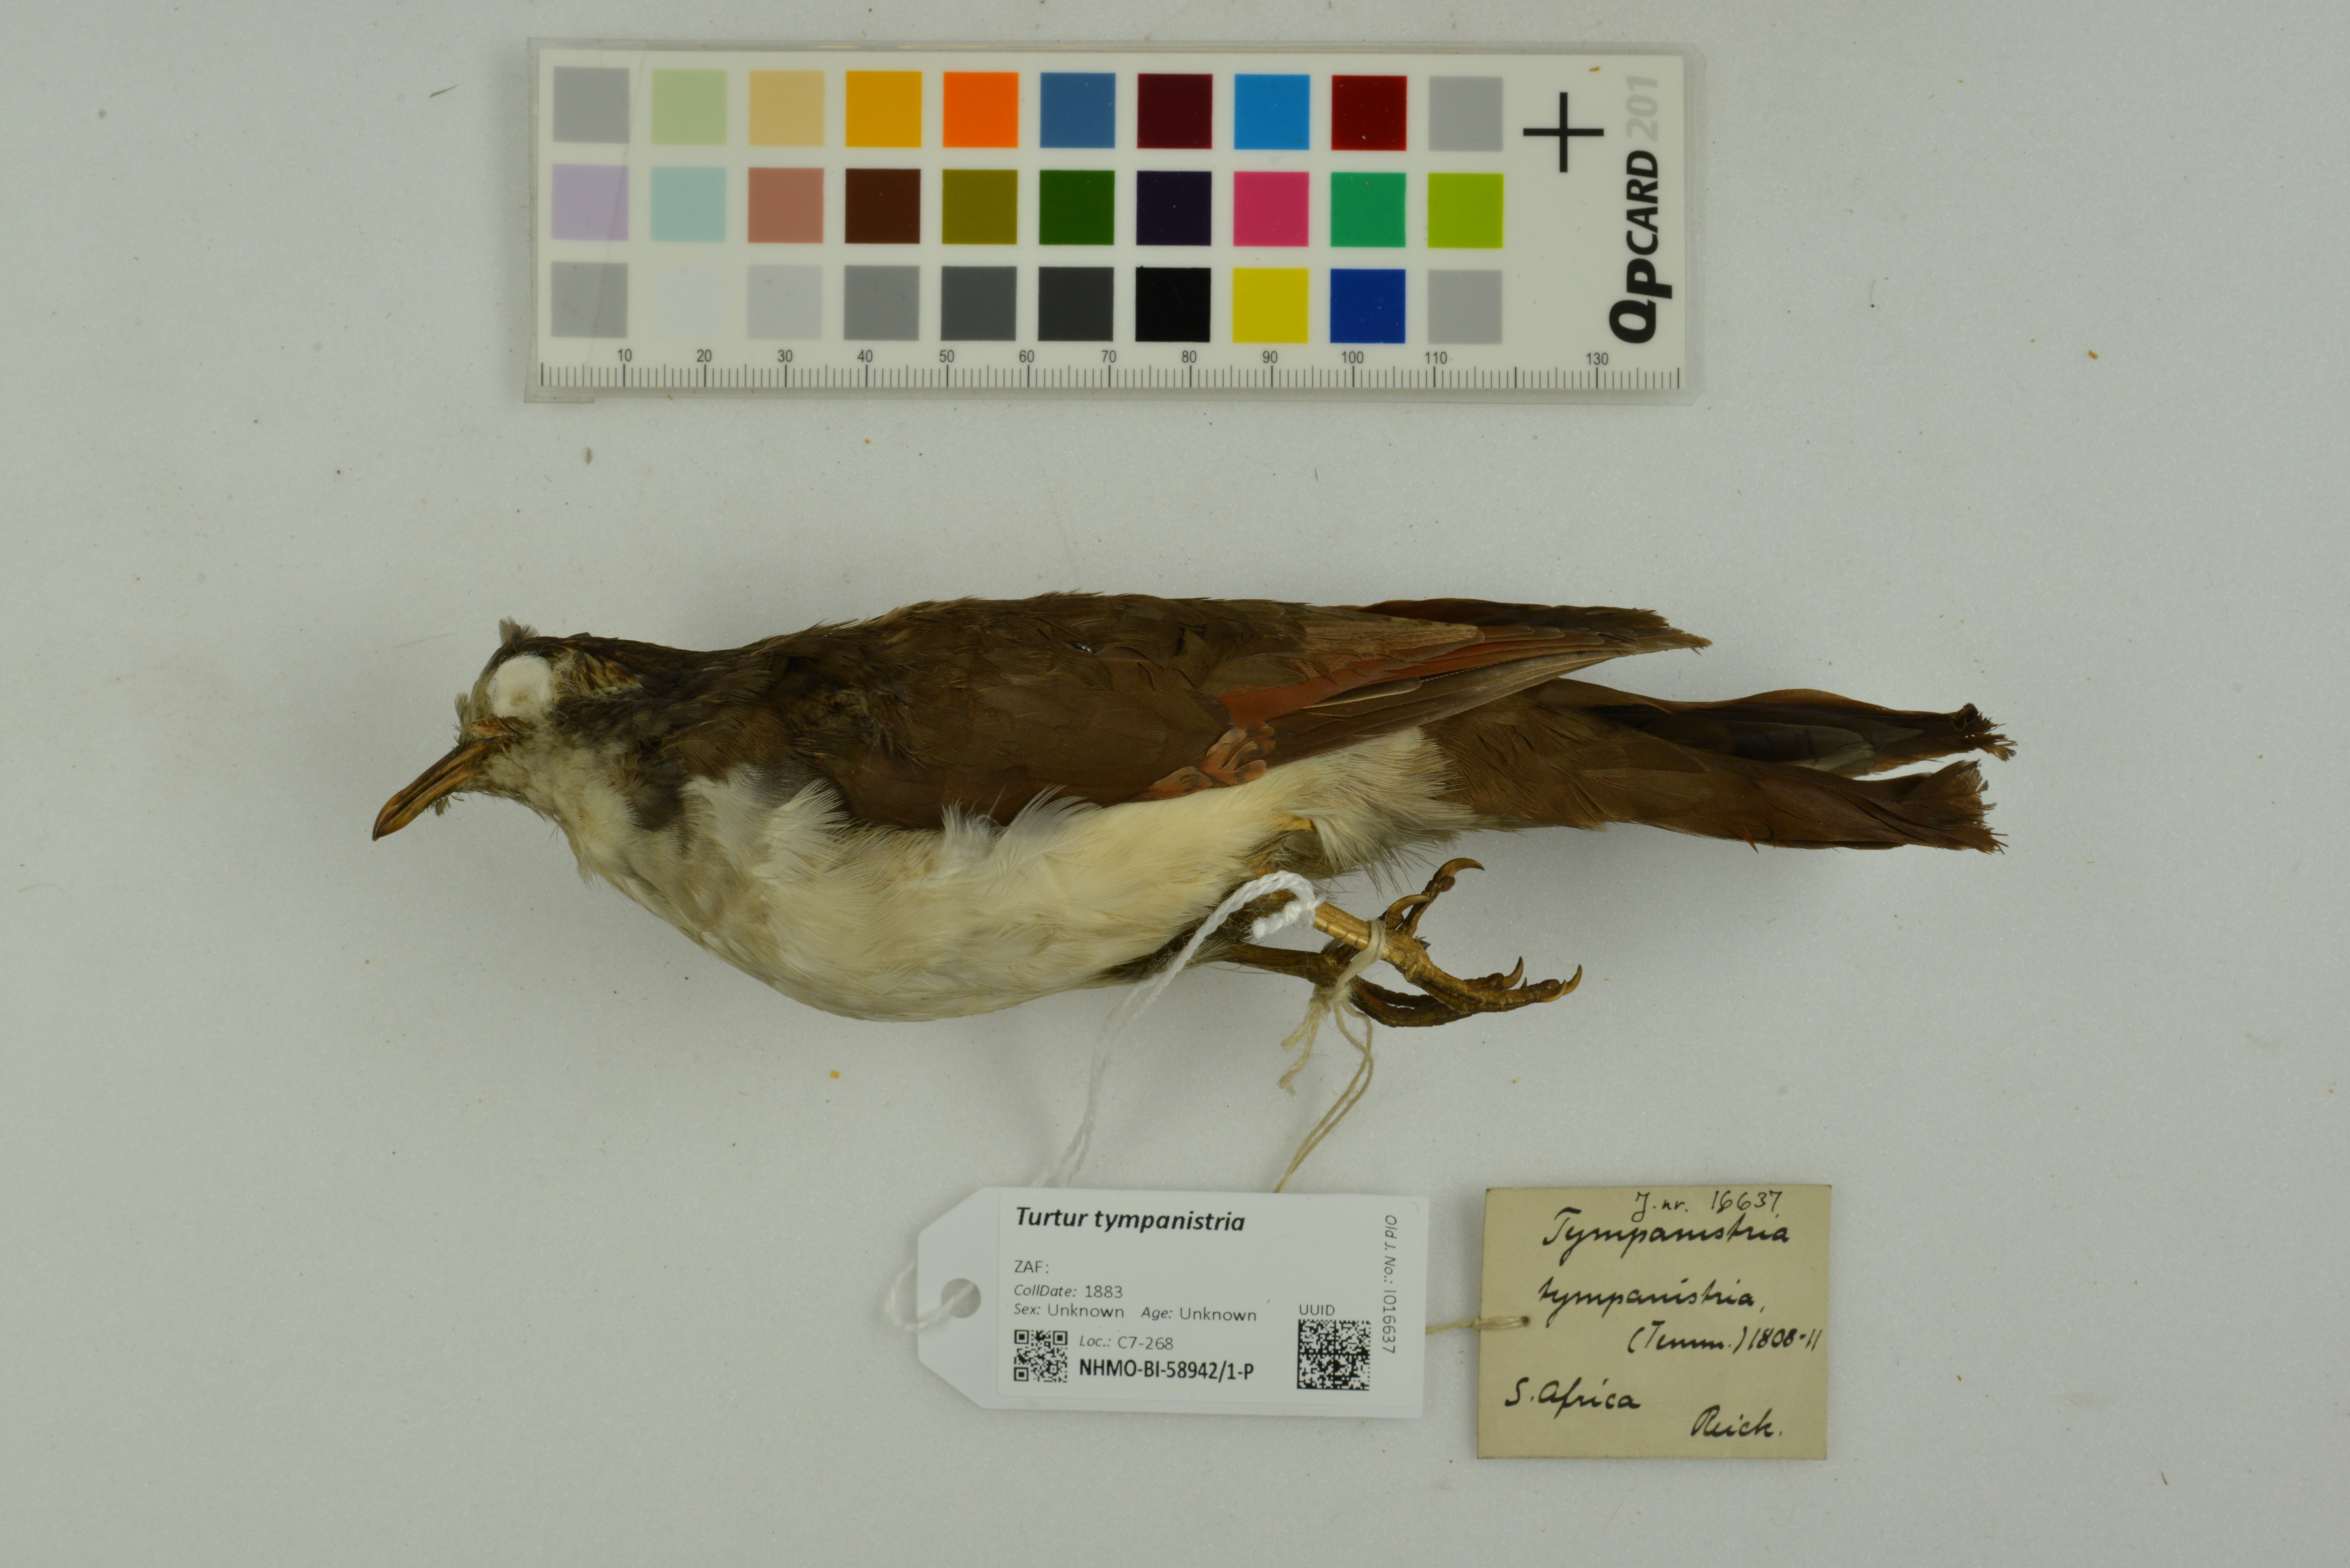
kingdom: Animalia
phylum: Chordata
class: Aves
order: Columbiformes
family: Columbidae
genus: Turtur
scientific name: Turtur tympanistria
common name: Tambourine dove
